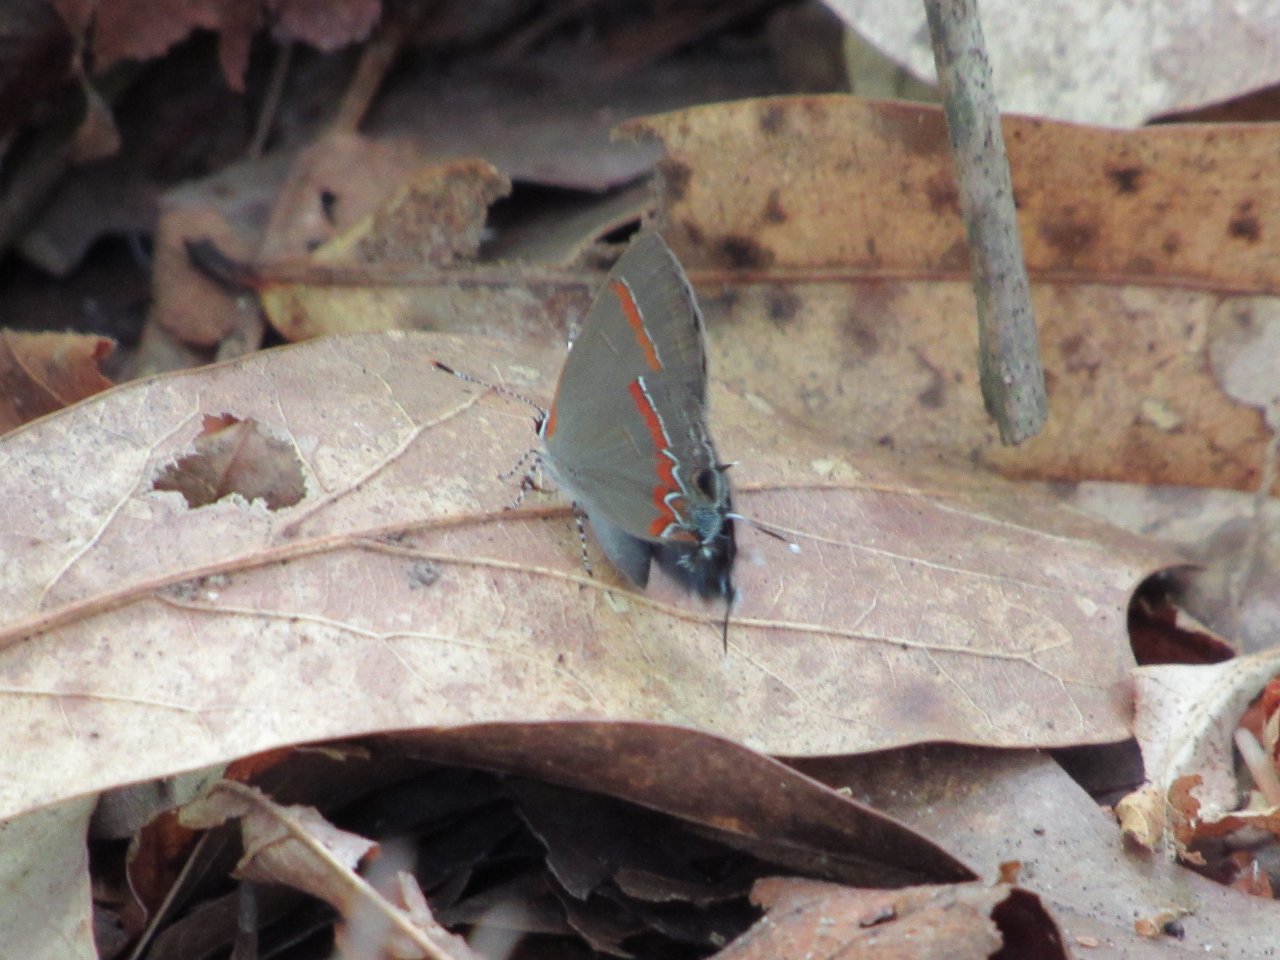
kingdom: Animalia
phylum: Arthropoda
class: Insecta
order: Lepidoptera
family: Lycaenidae
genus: Calycopis
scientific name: Calycopis cecrops
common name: Red-banded Hairstreak
